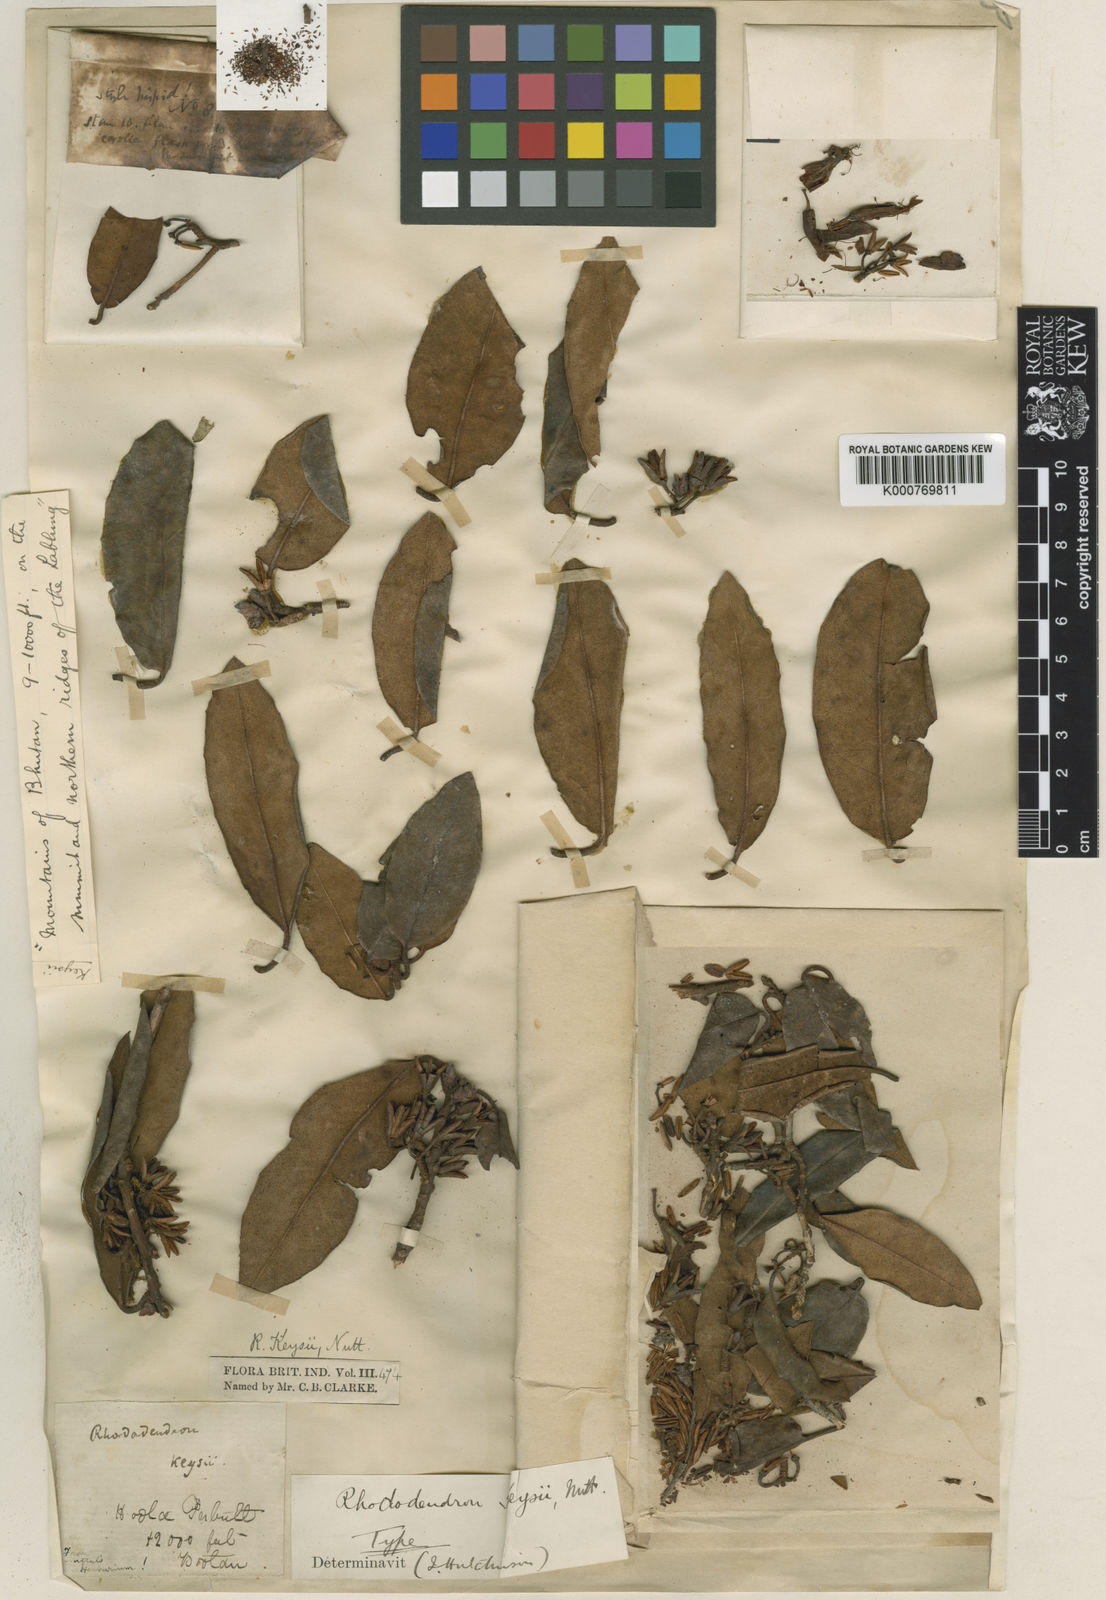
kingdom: Plantae
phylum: Tracheophyta
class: Magnoliopsida
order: Ericales
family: Ericaceae
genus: Rhododendron
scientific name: Rhododendron keysii
